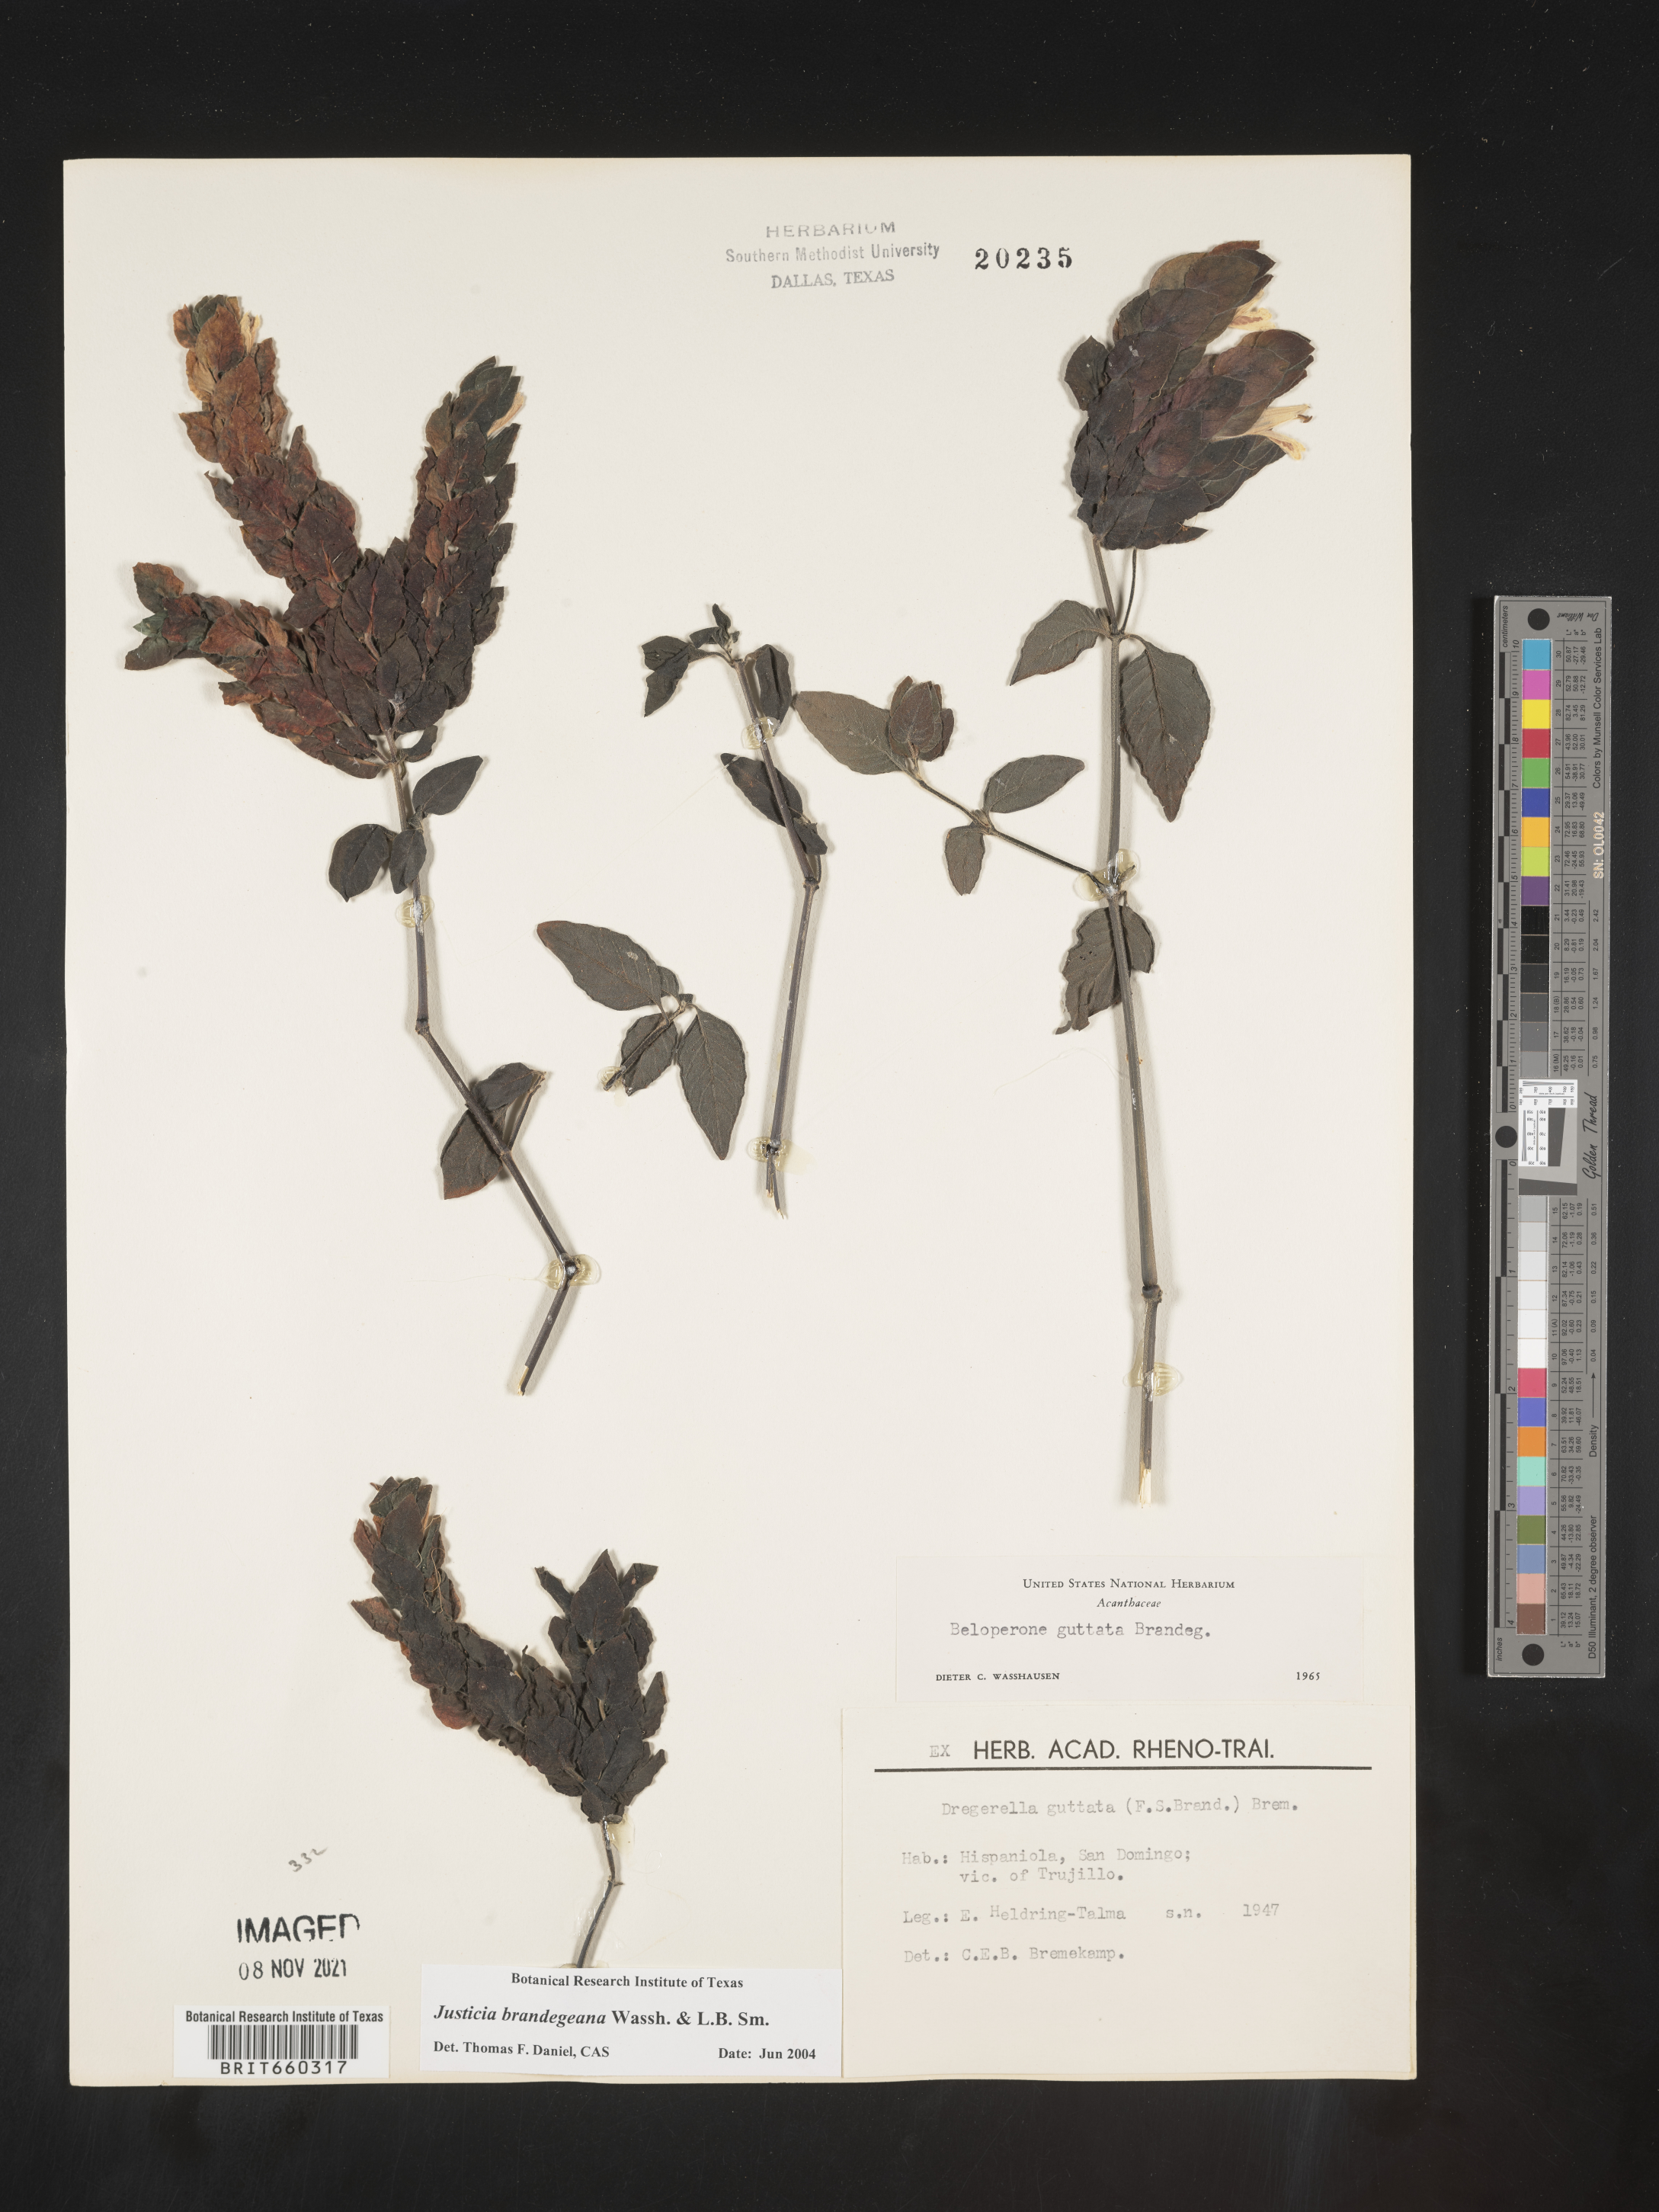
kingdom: Plantae
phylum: Tracheophyta
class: Magnoliopsida
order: Lamiales
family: Acanthaceae
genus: Justicia
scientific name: Justicia
